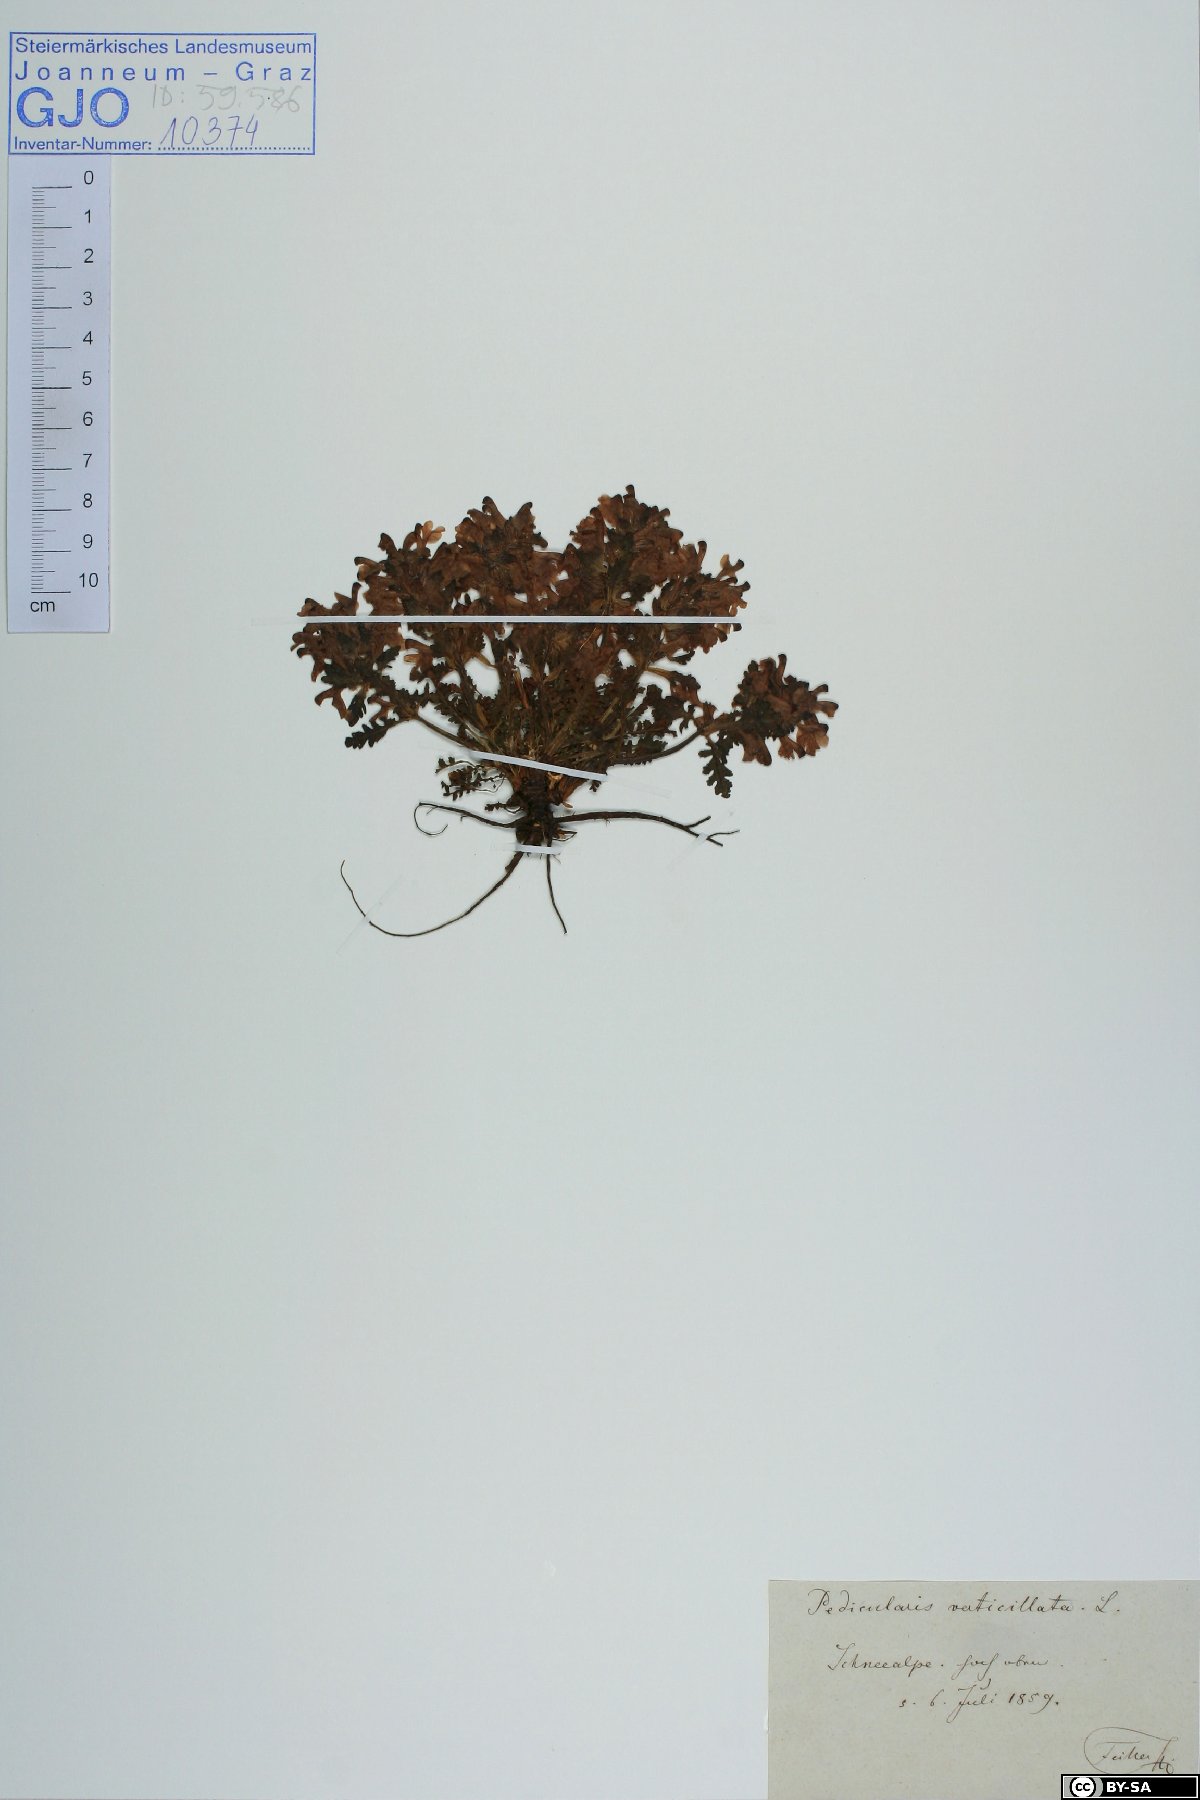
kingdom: Plantae
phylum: Tracheophyta
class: Magnoliopsida
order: Lamiales
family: Orobanchaceae
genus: Pedicularis
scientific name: Pedicularis verticillata
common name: Whorled lousewort
